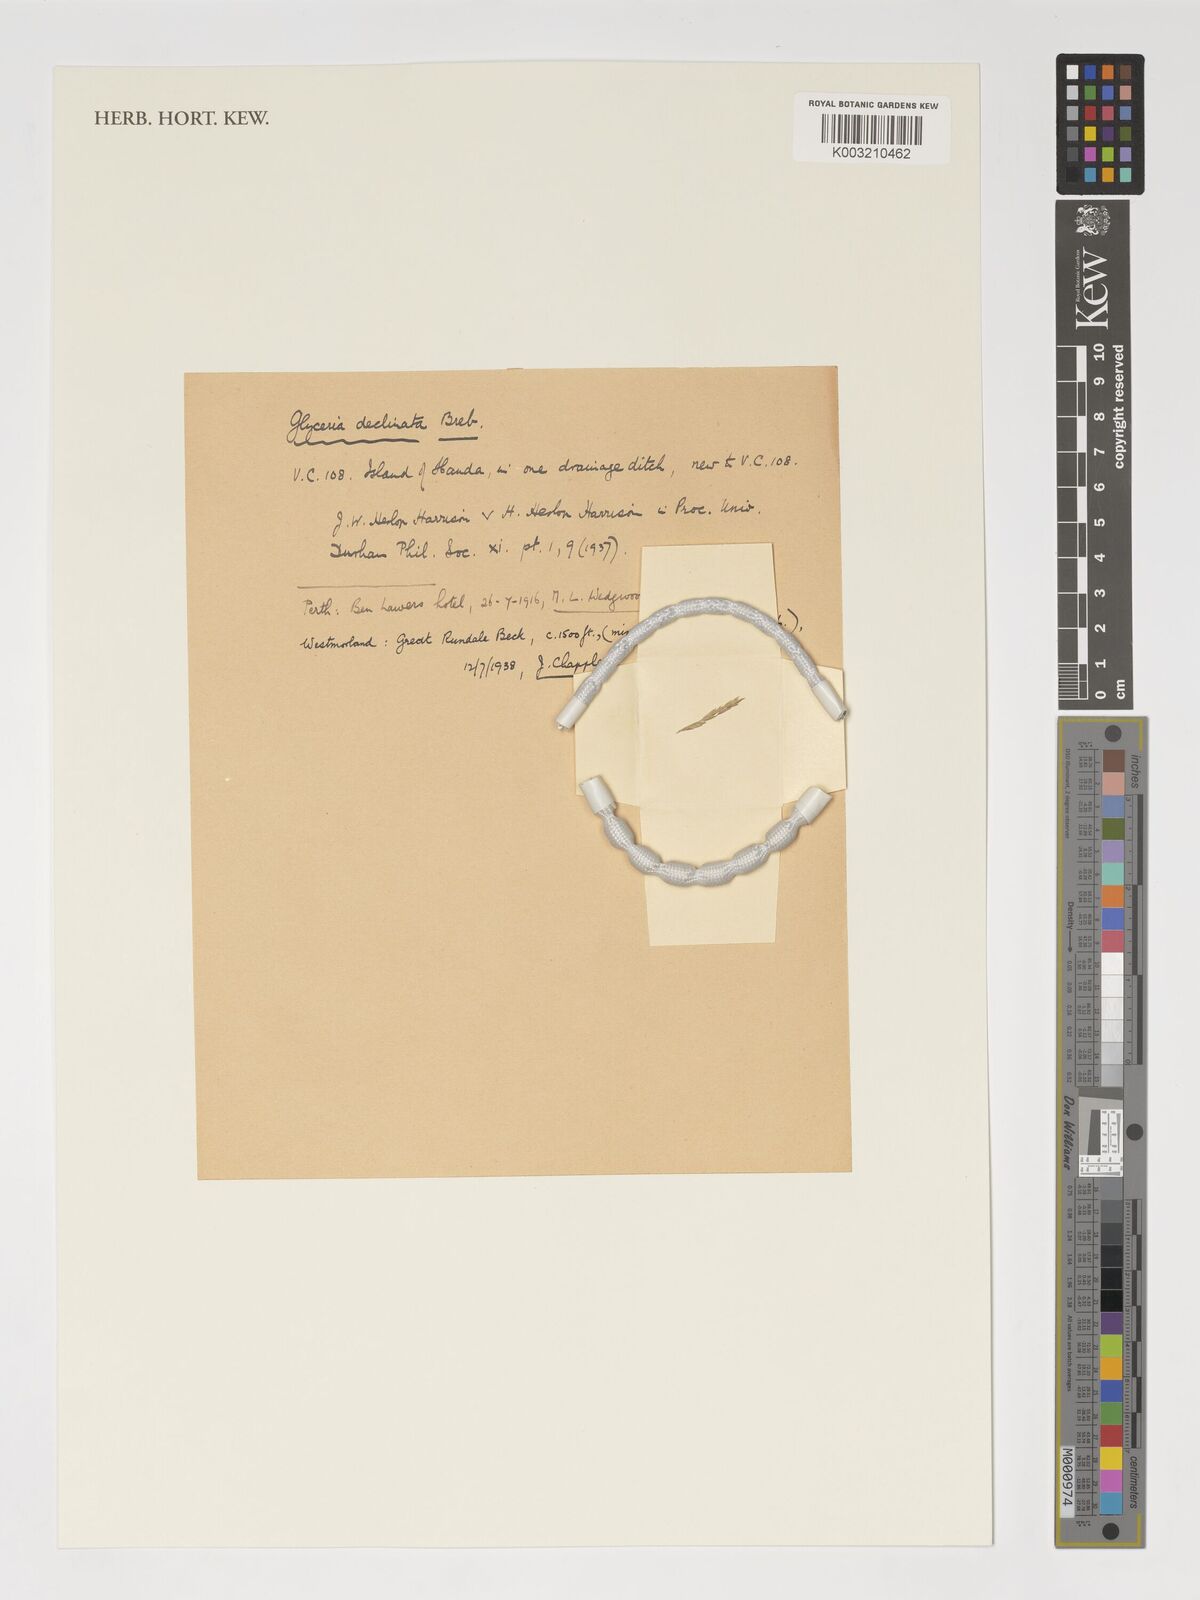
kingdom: Plantae
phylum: Tracheophyta
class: Liliopsida
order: Poales
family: Poaceae
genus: Glyceria
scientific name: Glyceria declinata
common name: Small sweet-grass
